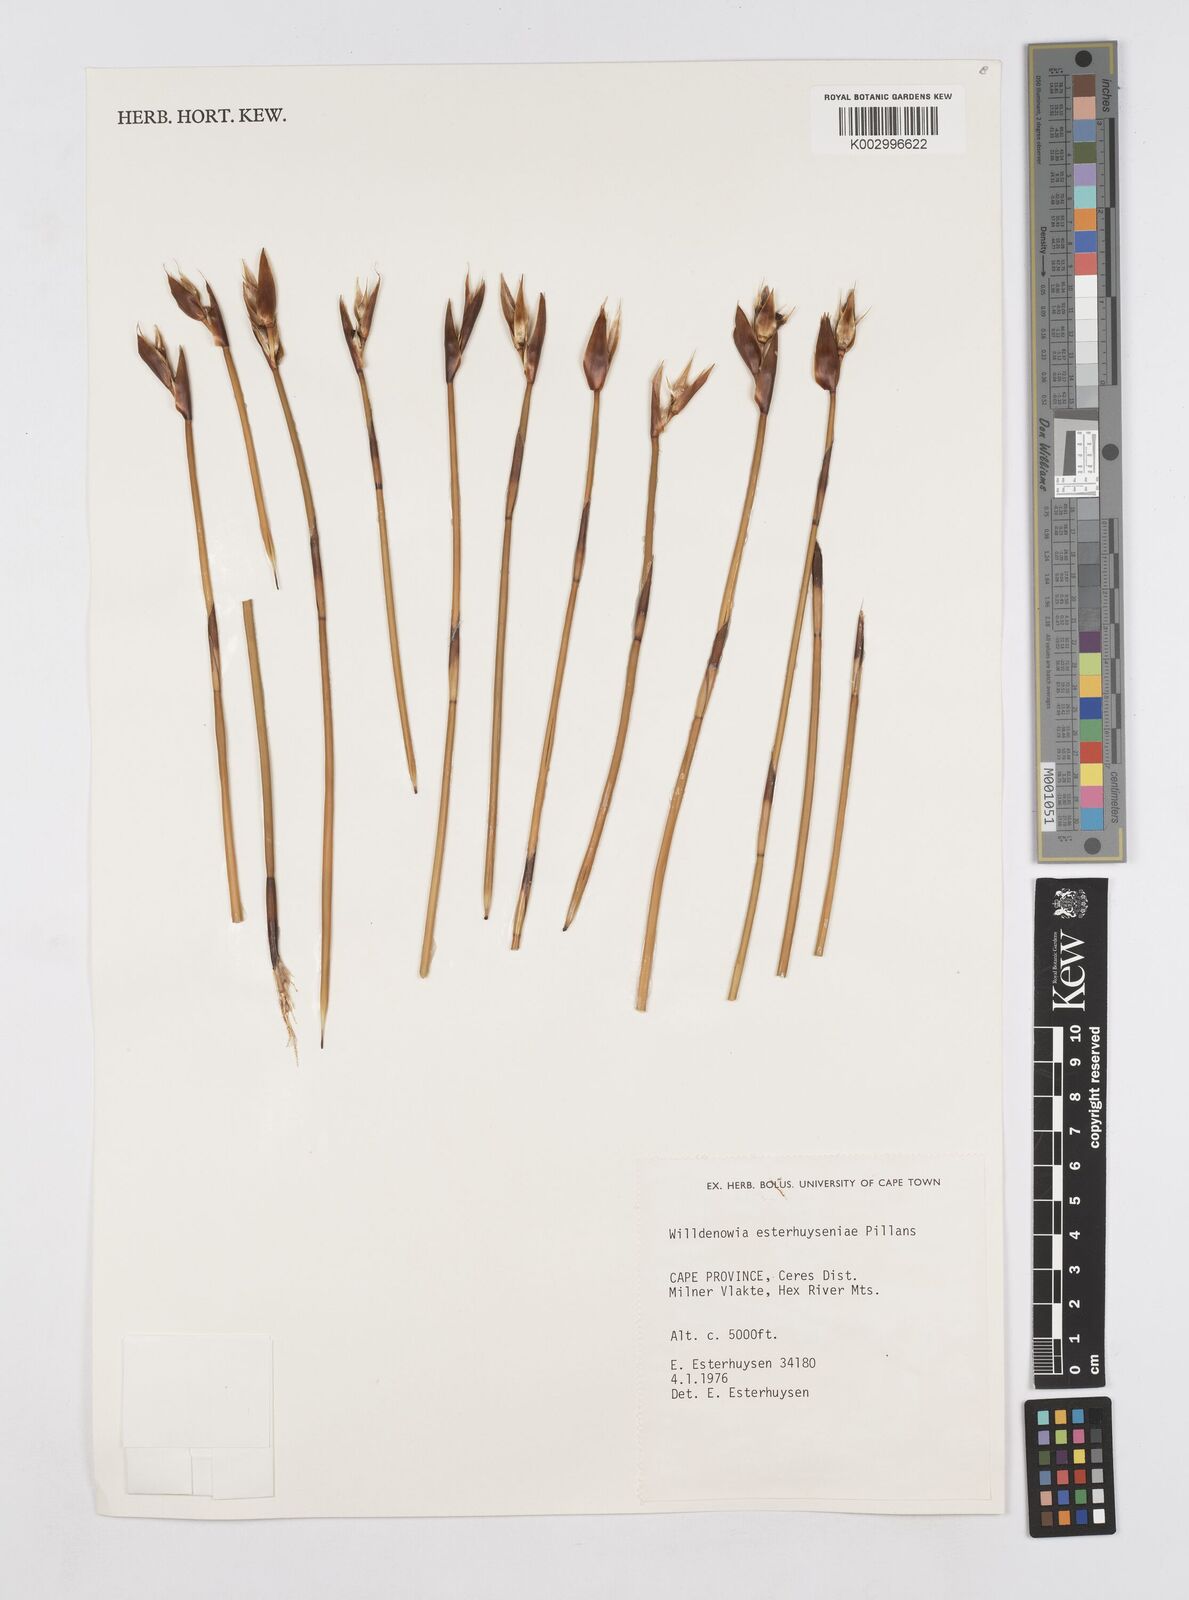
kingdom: Plantae
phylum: Tracheophyta
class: Liliopsida
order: Poales
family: Restionaceae
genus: Ceratocaryum
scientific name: Ceratocaryum fimbriatum
